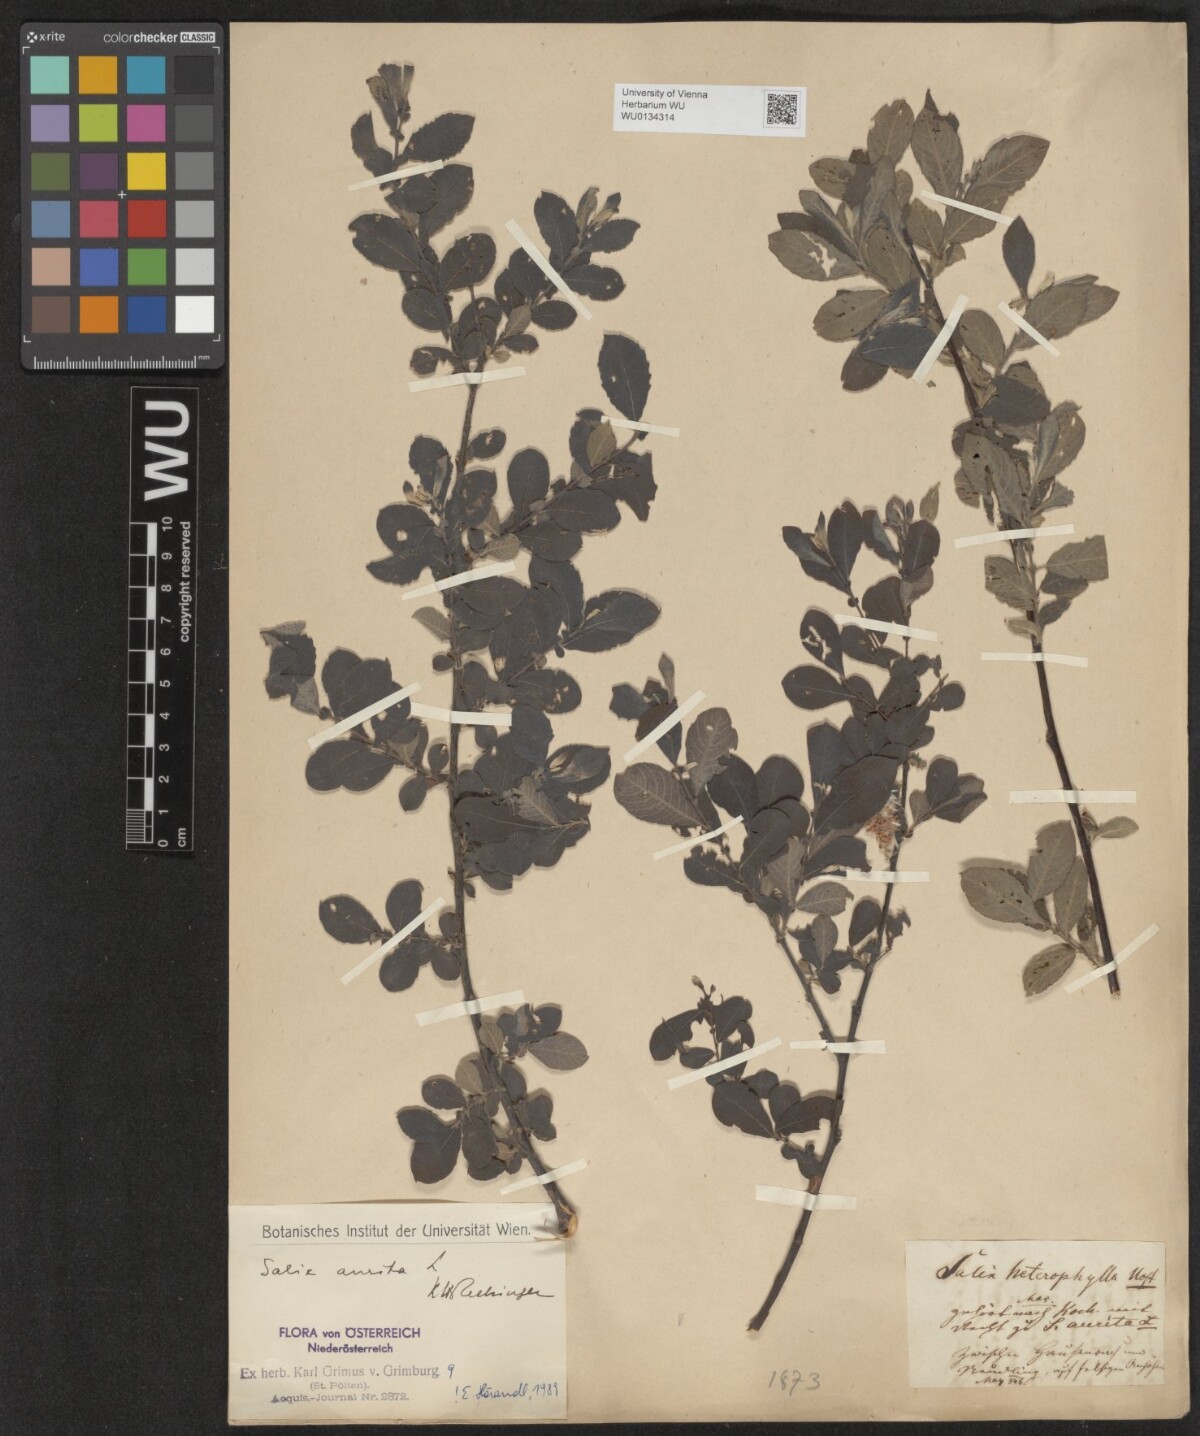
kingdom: Plantae
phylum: Tracheophyta
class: Magnoliopsida
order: Malpighiales
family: Salicaceae
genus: Salix
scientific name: Salix aurita
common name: Eared willow
